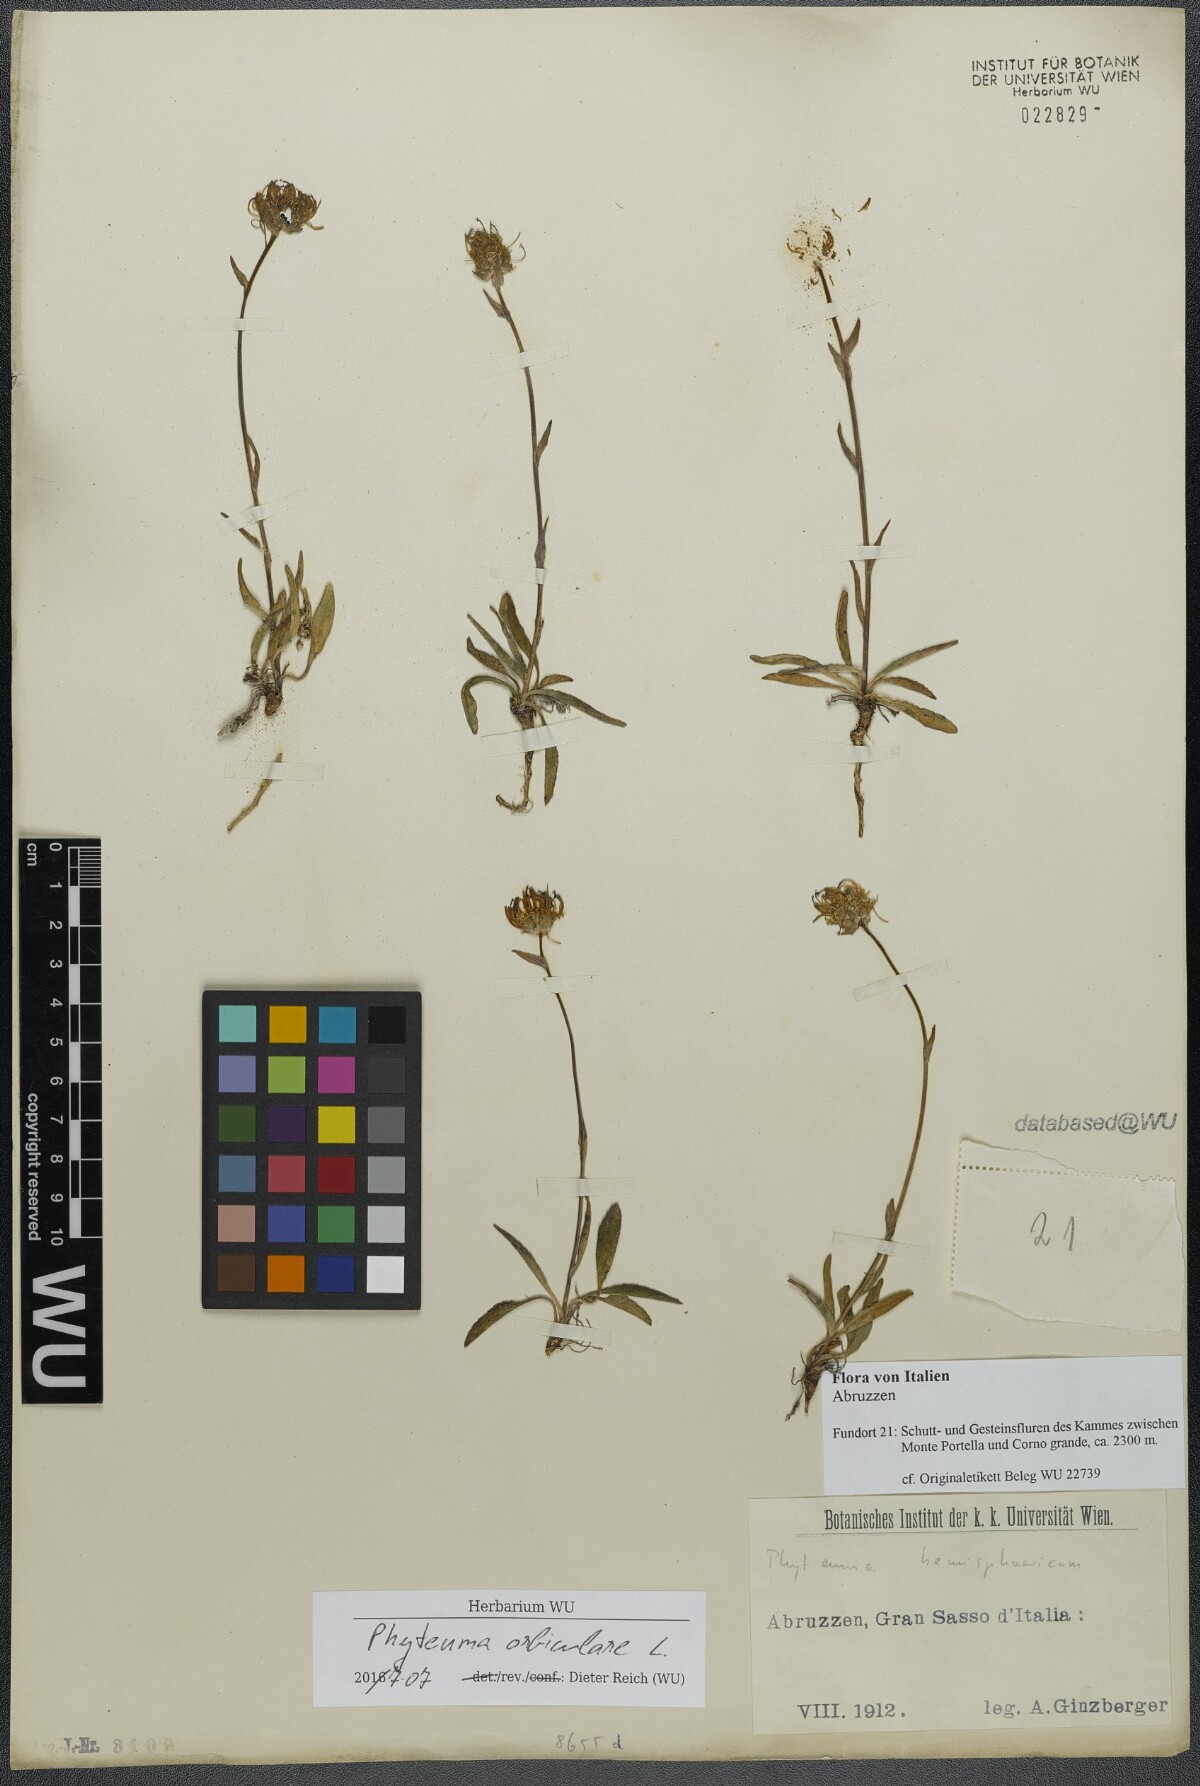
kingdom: Plantae
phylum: Tracheophyta
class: Magnoliopsida
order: Asterales
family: Campanulaceae
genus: Phyteuma
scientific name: Phyteuma orbiculare
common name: Round-headed rampion
